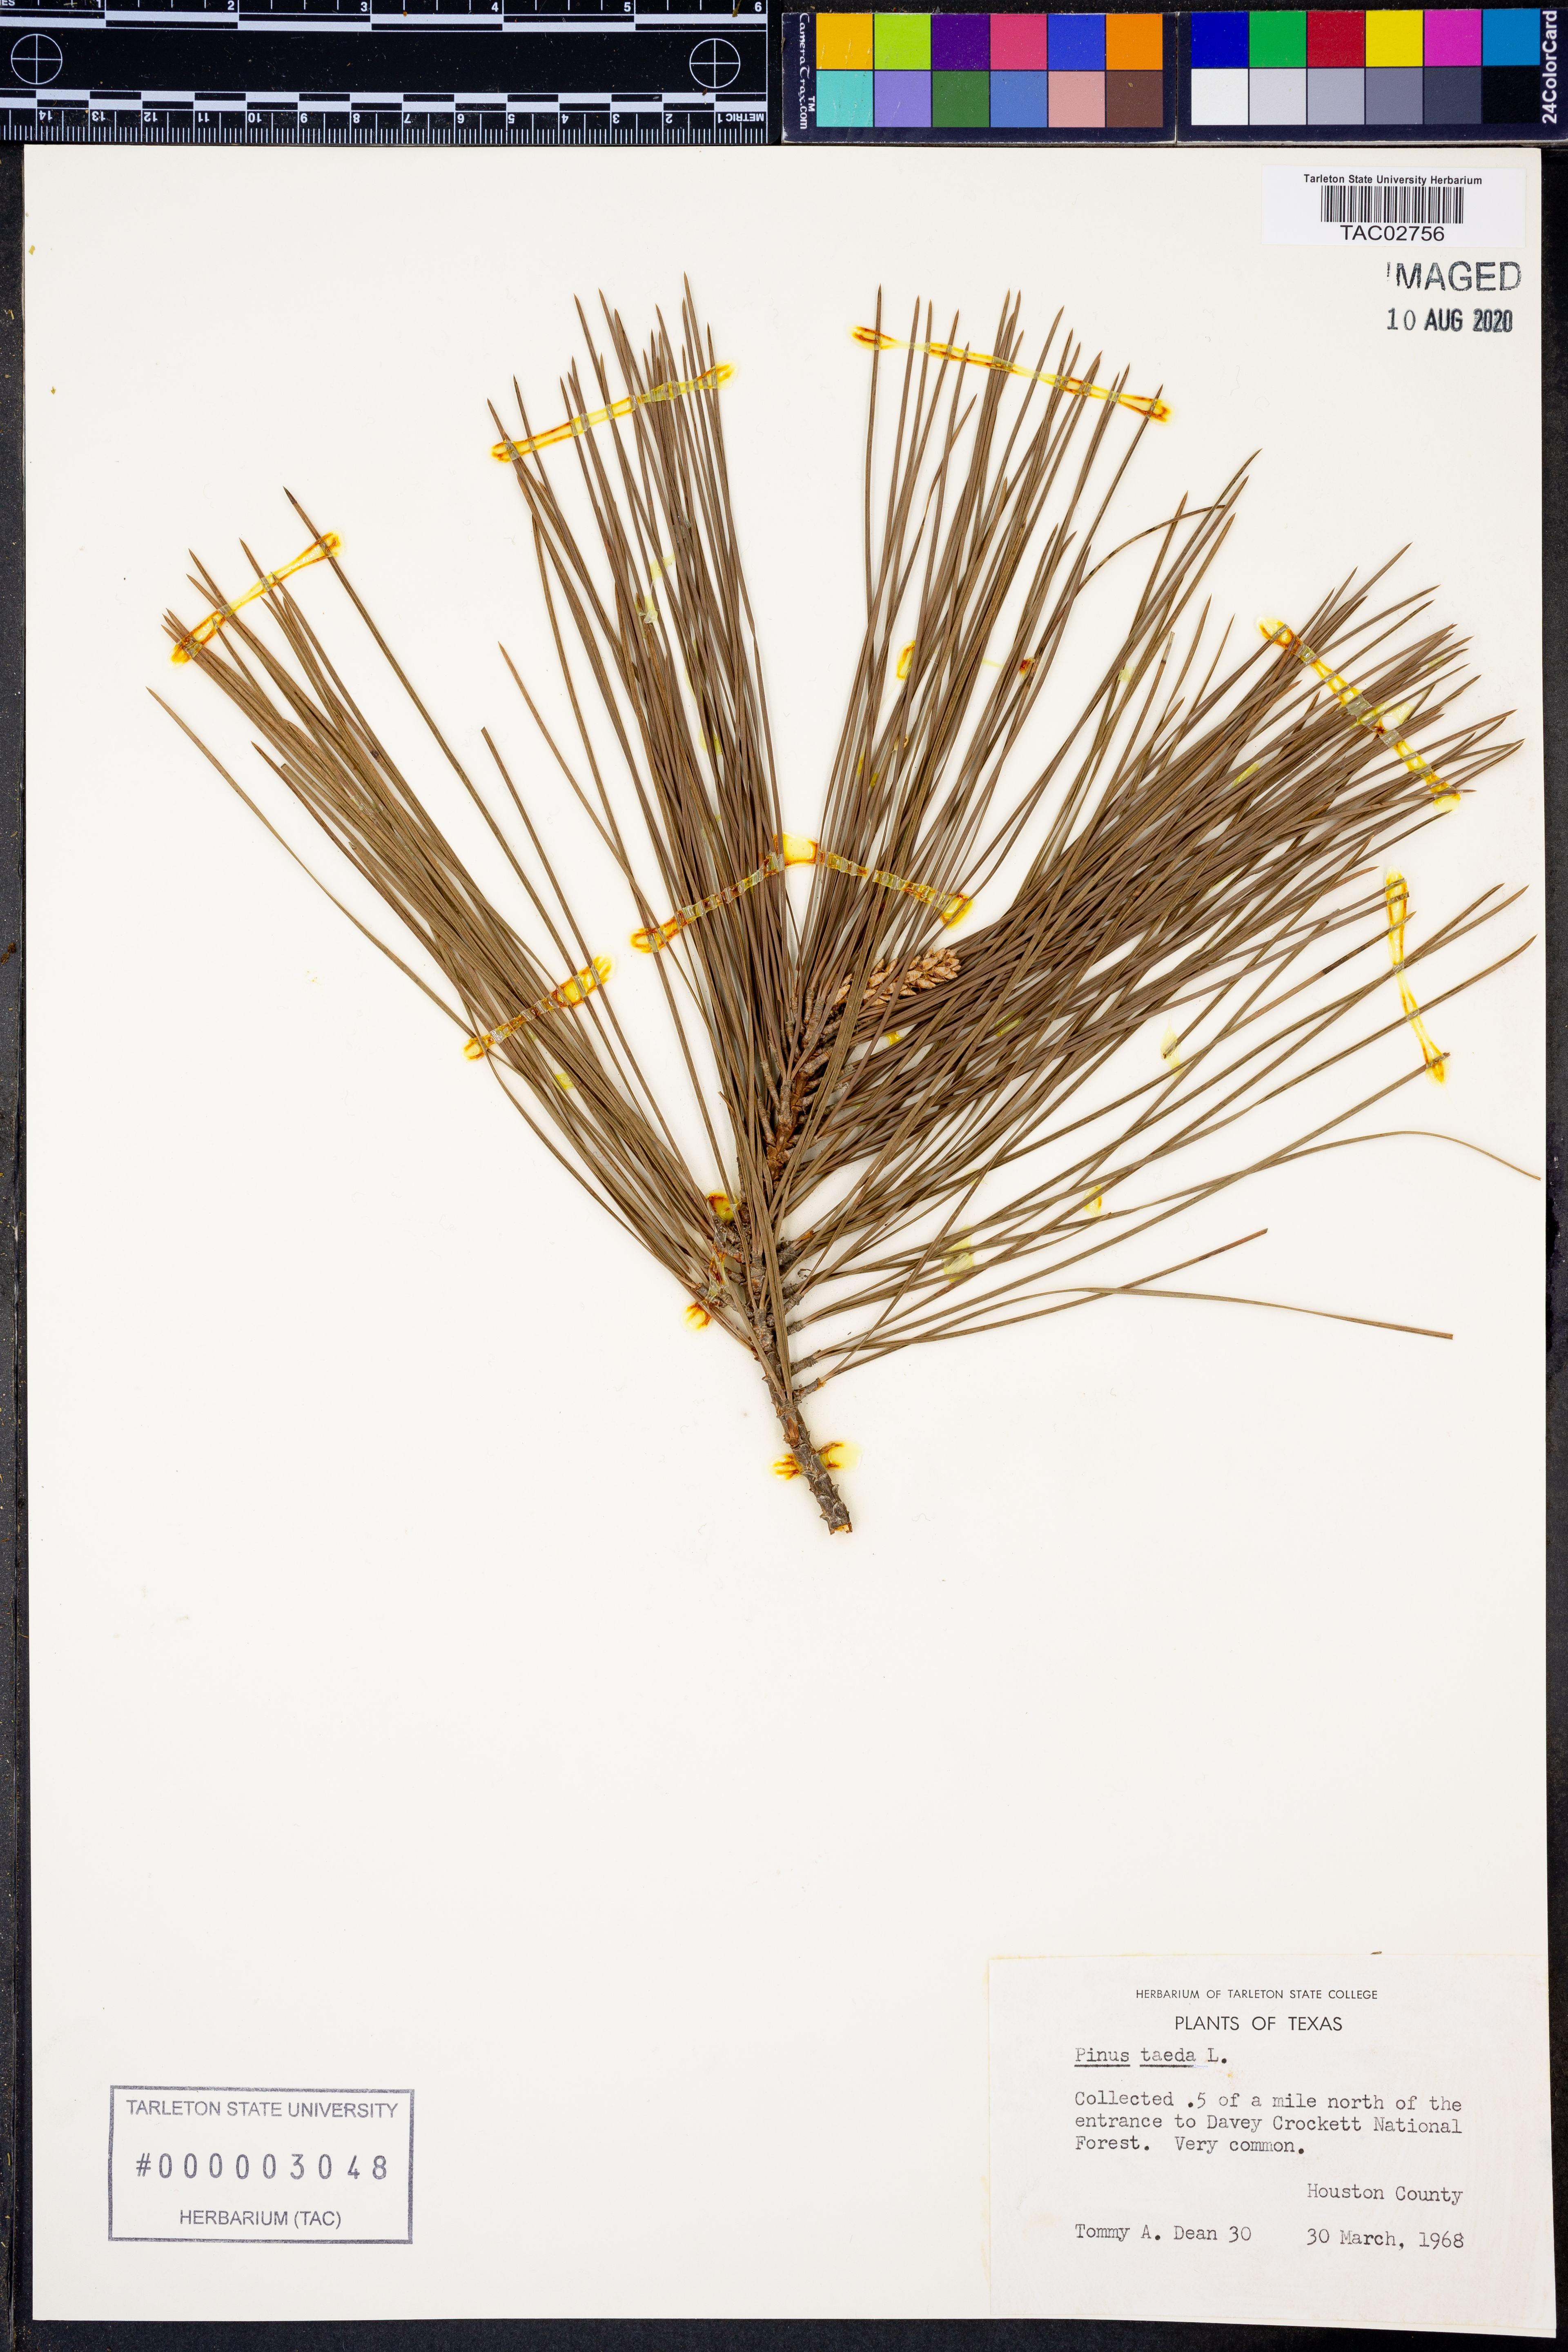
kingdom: Plantae
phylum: Tracheophyta
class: Pinopsida
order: Pinales
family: Pinaceae
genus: Pinus
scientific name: Pinus taeda
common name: Loblolly pine
